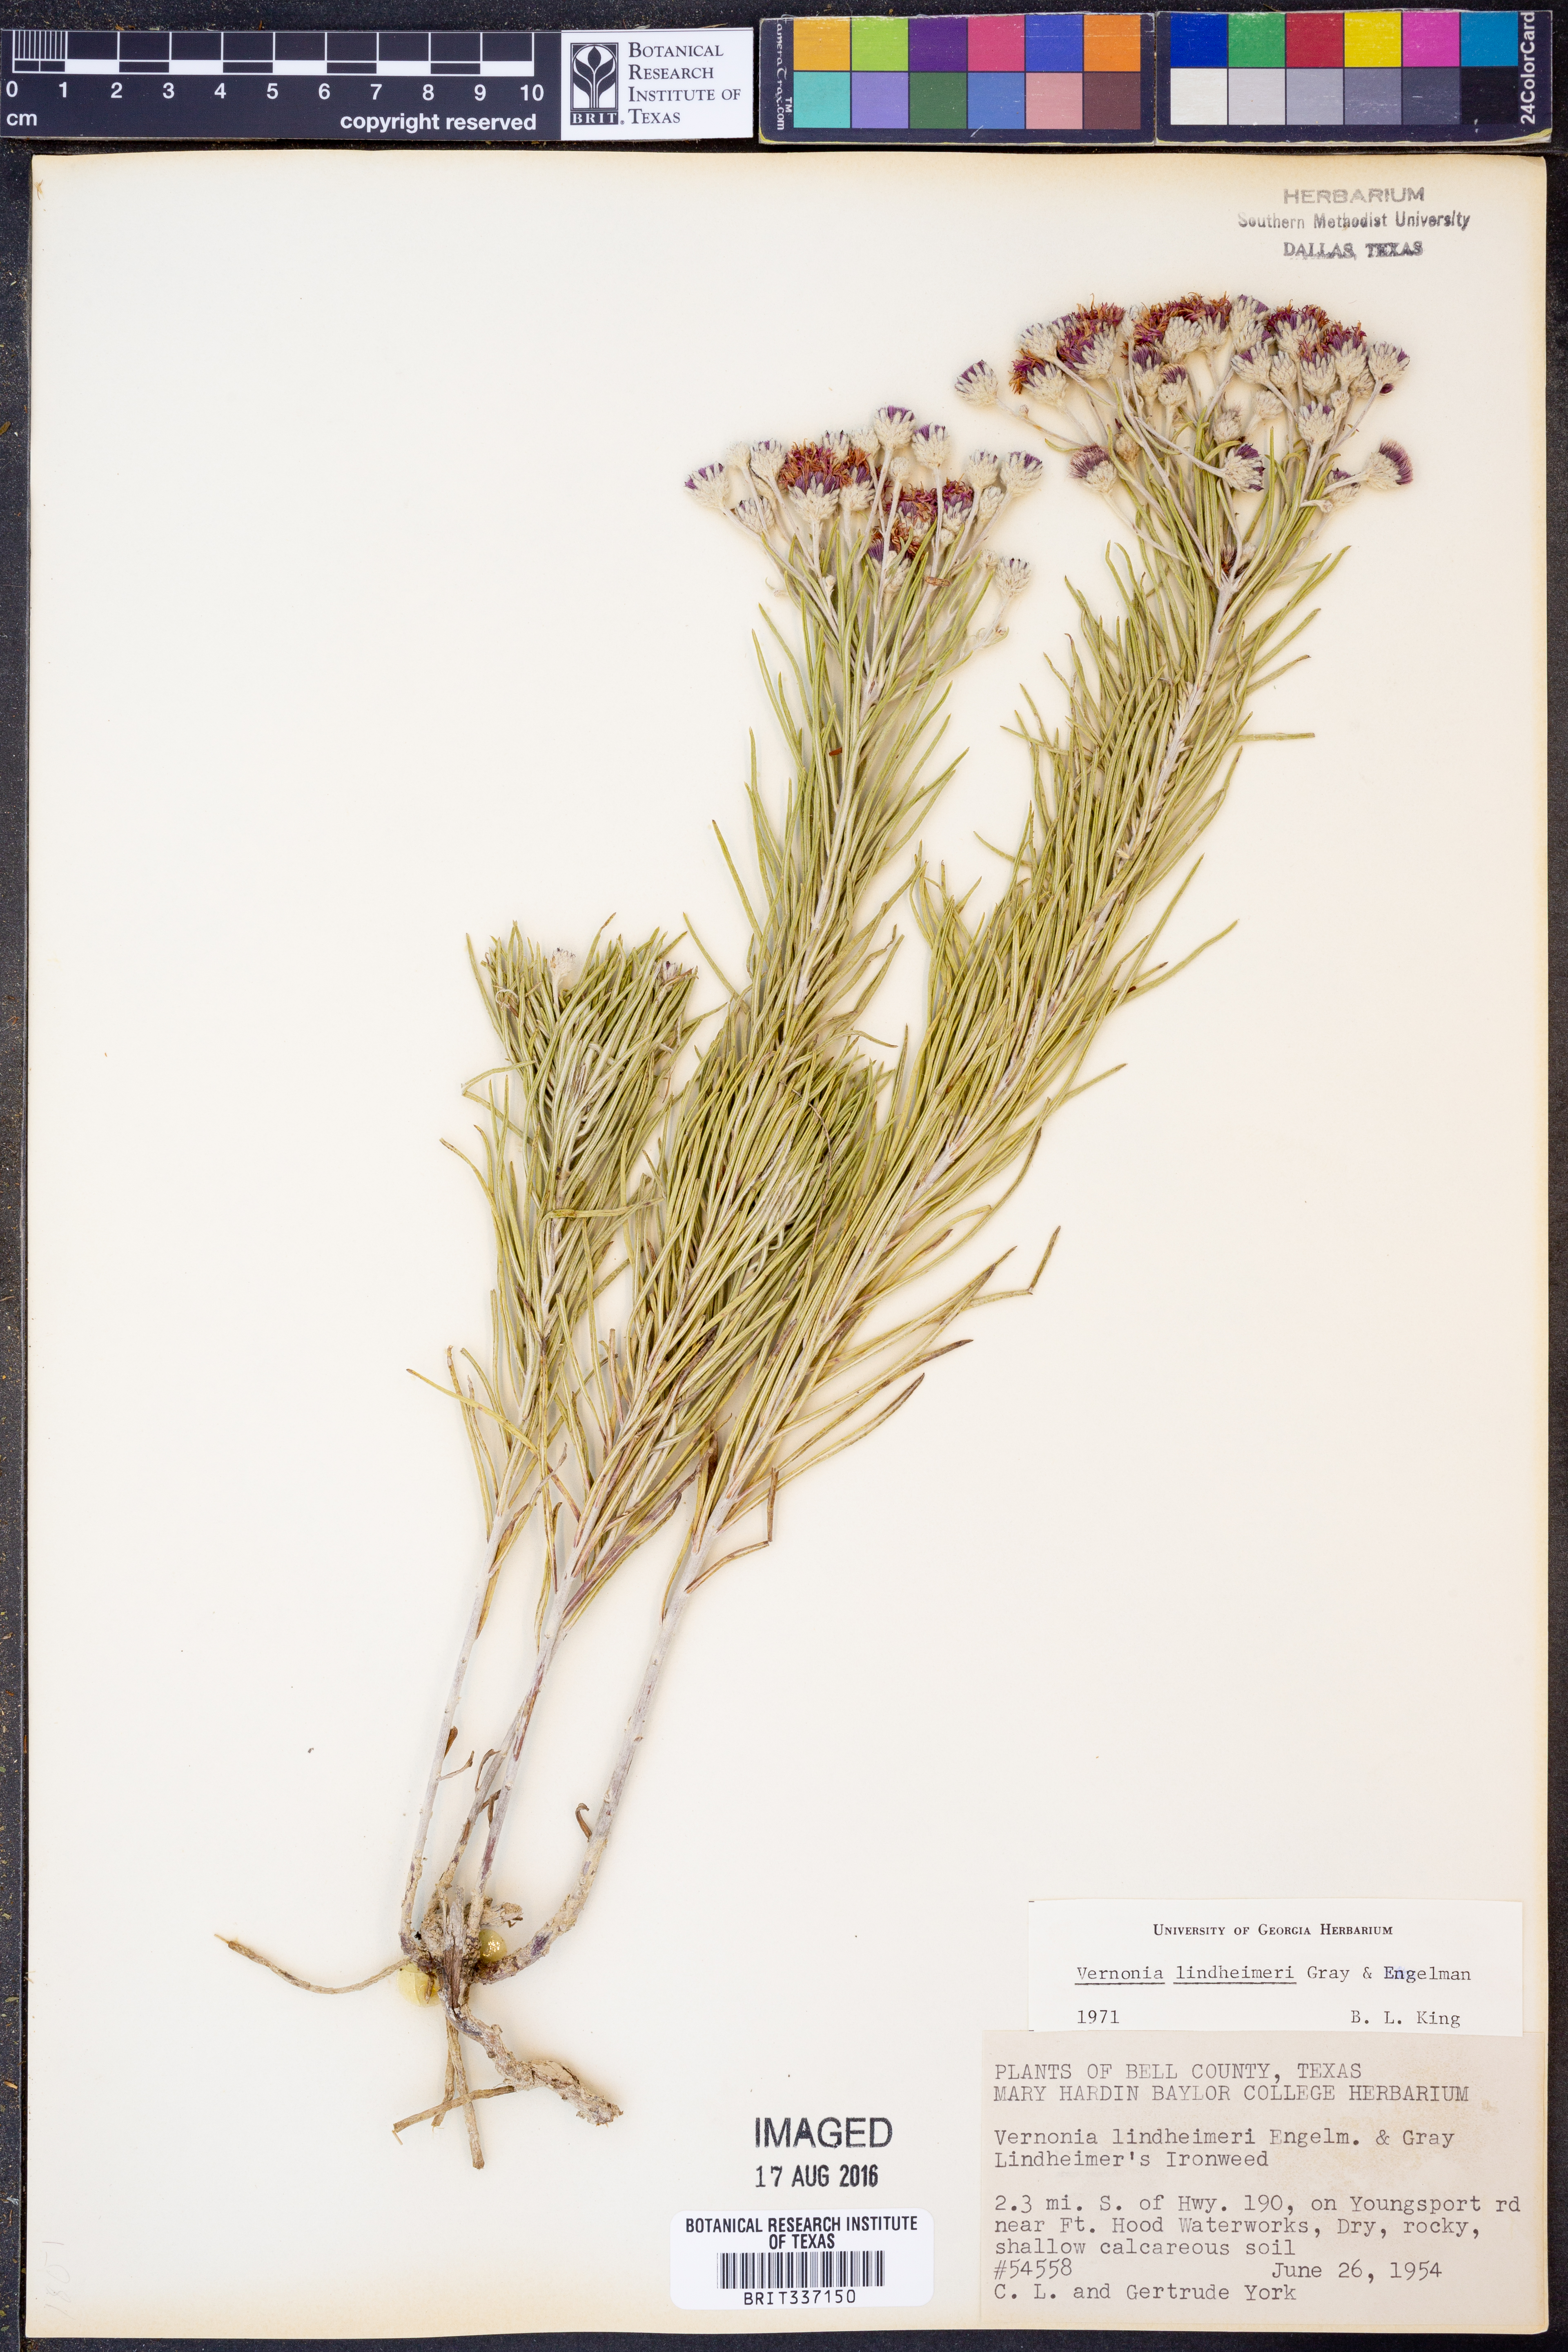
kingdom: Plantae
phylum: Tracheophyta
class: Magnoliopsida
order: Asterales
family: Asteraceae
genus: Vernonia
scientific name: Vernonia lindheimeri
